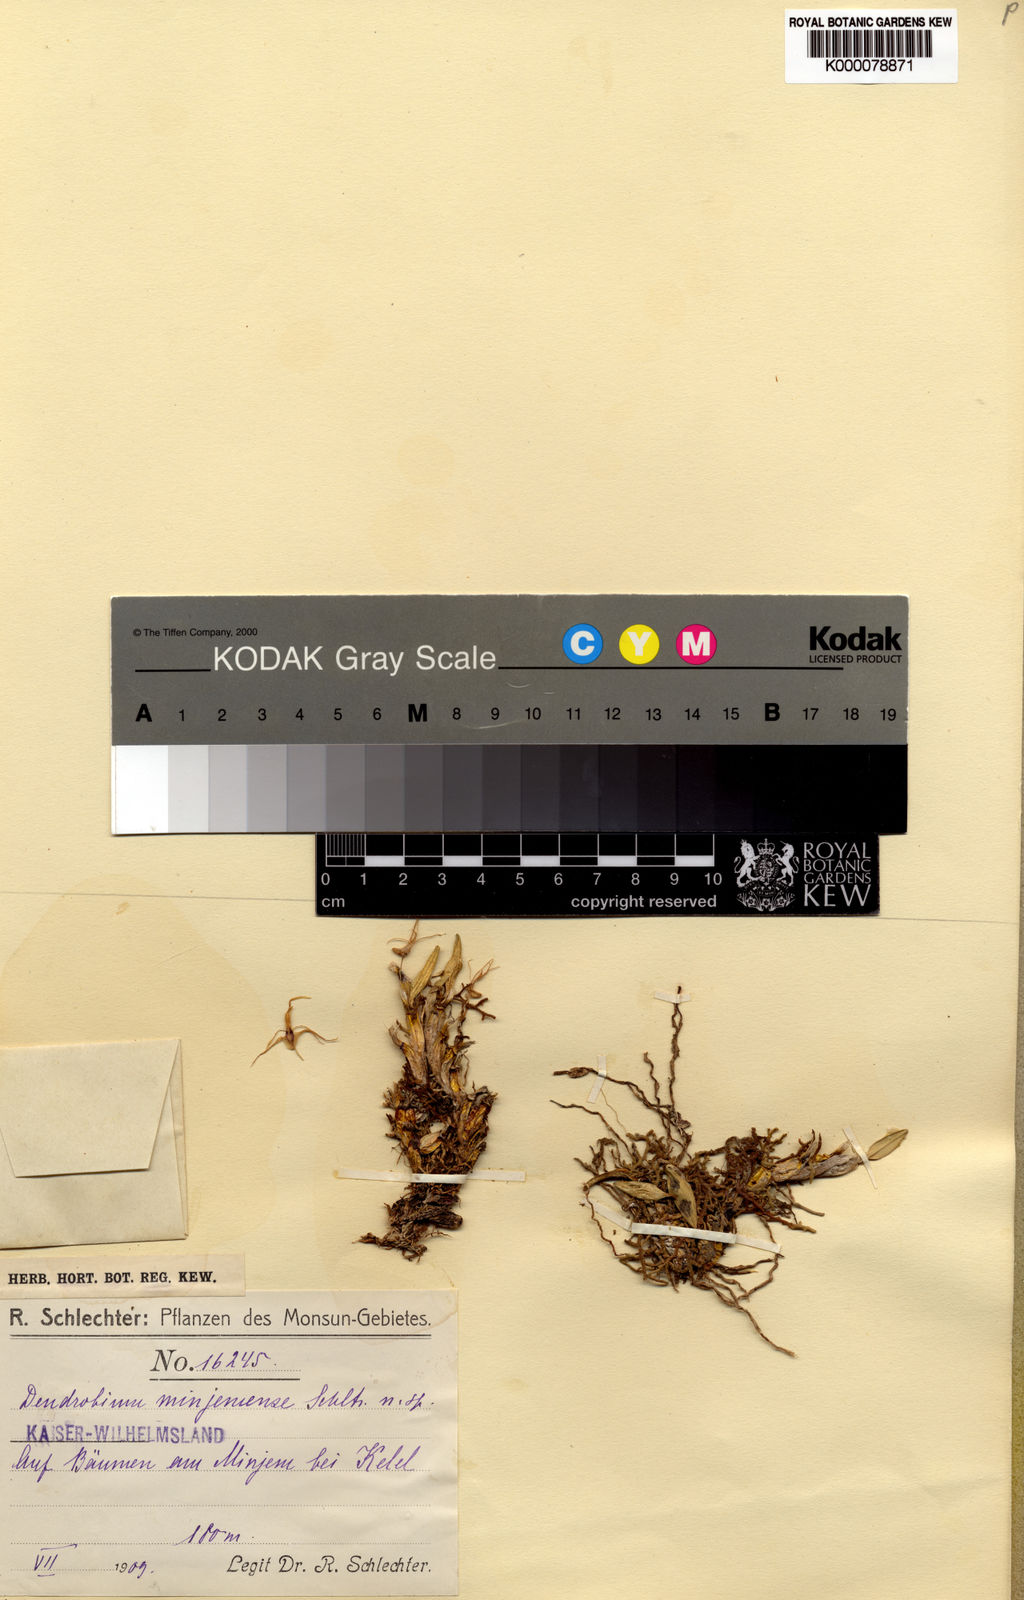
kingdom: Plantae
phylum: Tracheophyta
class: Liliopsida
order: Asparagales
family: Orchidaceae
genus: Dendrobium
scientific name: Dendrobium crenulatum
